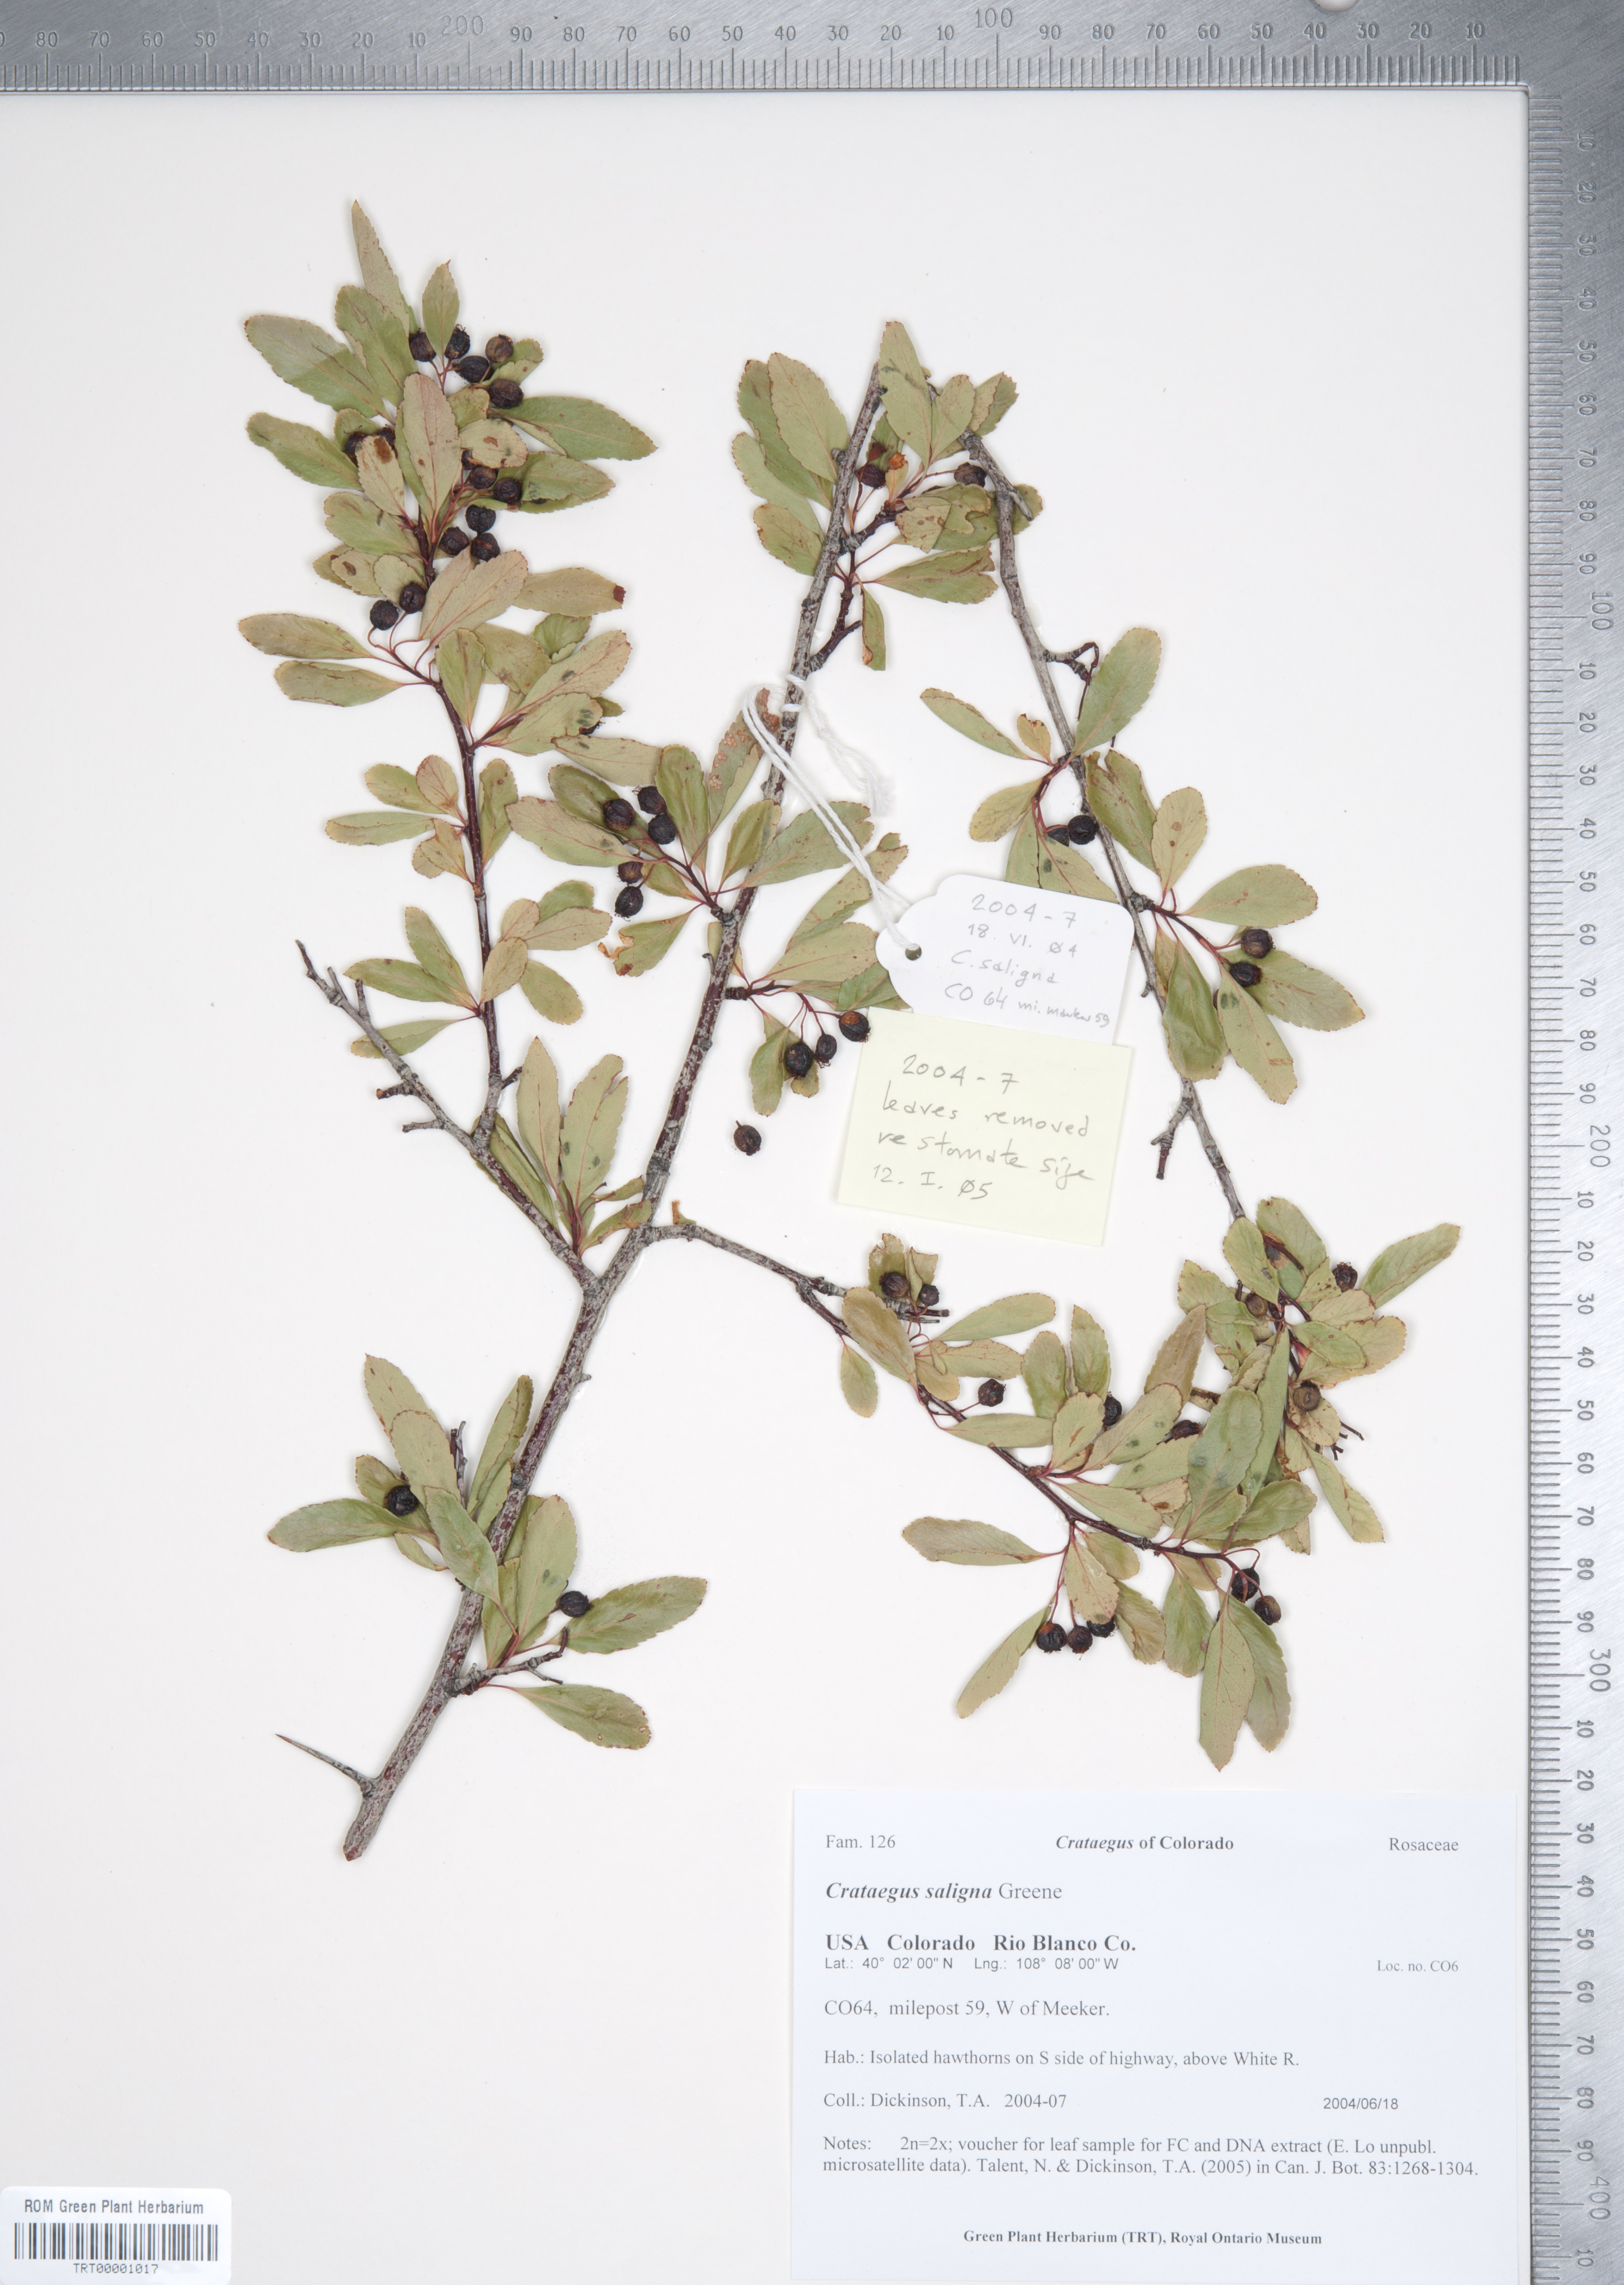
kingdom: Plantae
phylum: Tracheophyta
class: Magnoliopsida
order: Rosales
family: Rosaceae
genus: Crataegus
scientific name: Crataegus saligna
